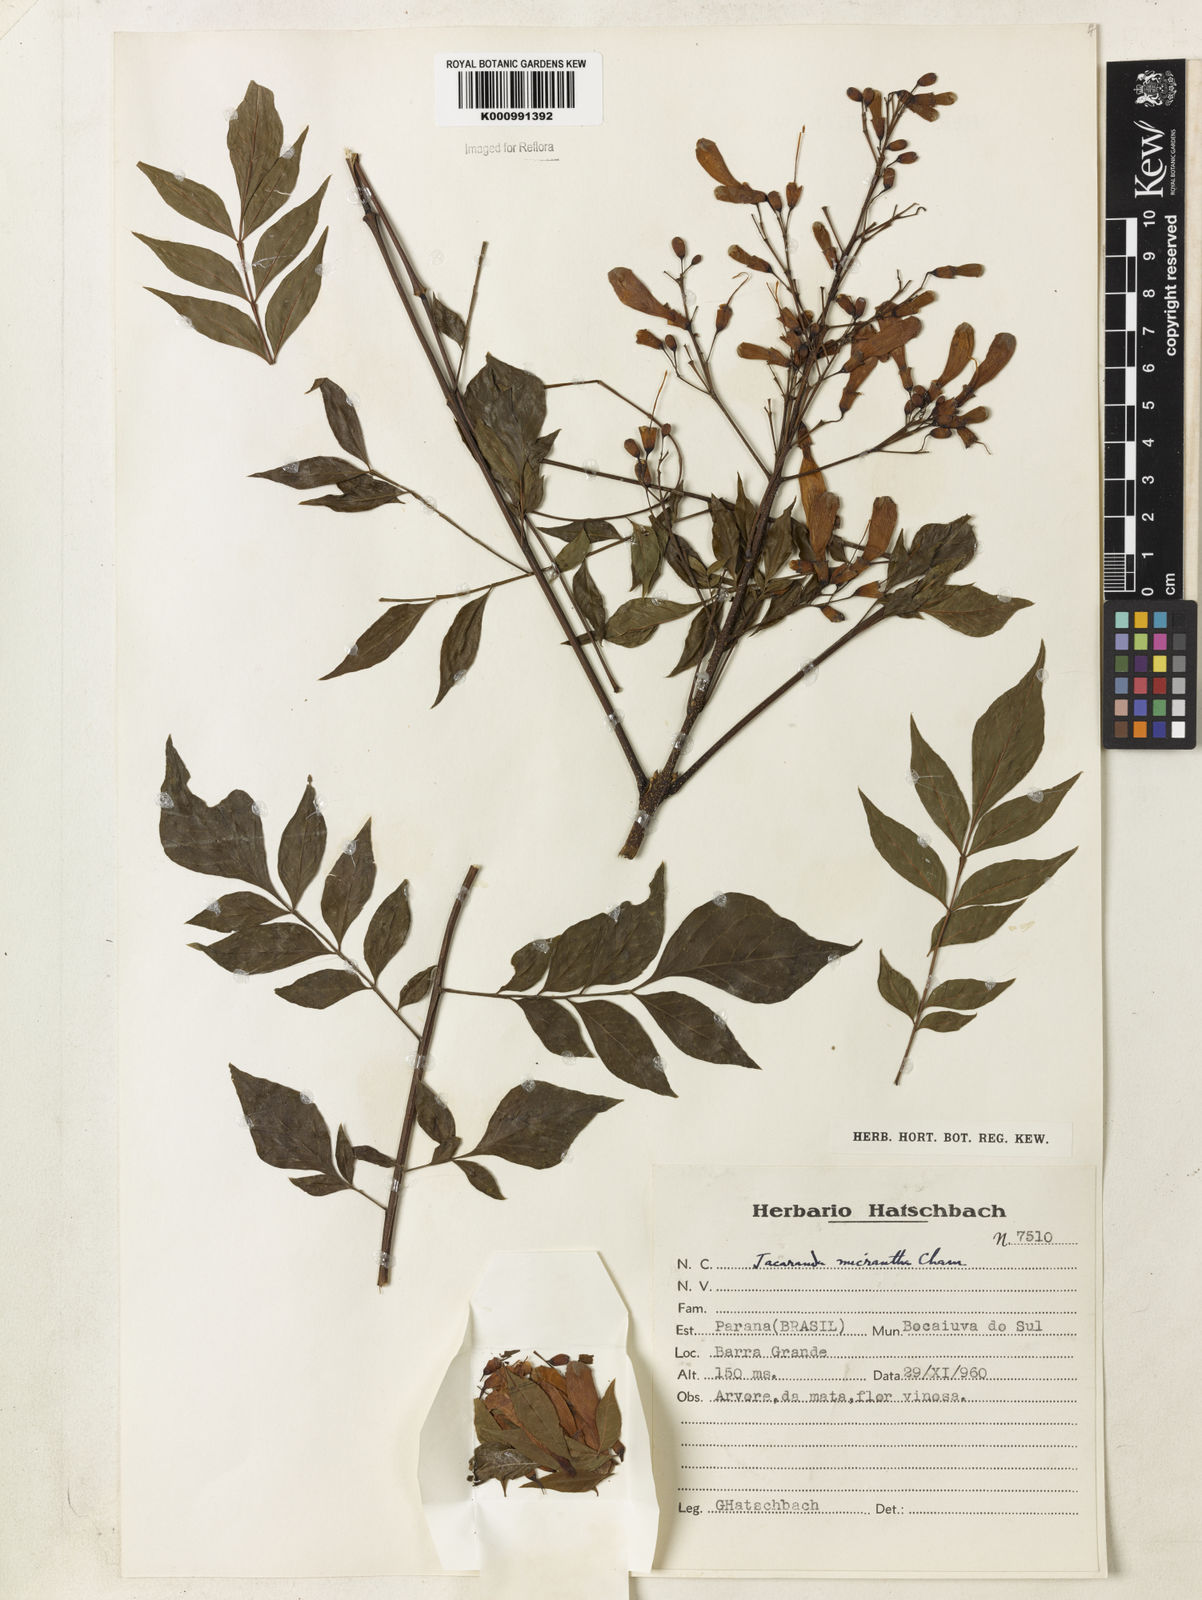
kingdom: Plantae
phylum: Tracheophyta
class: Magnoliopsida
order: Lamiales
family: Bignoniaceae
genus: Jacaranda
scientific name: Jacaranda micrantha
